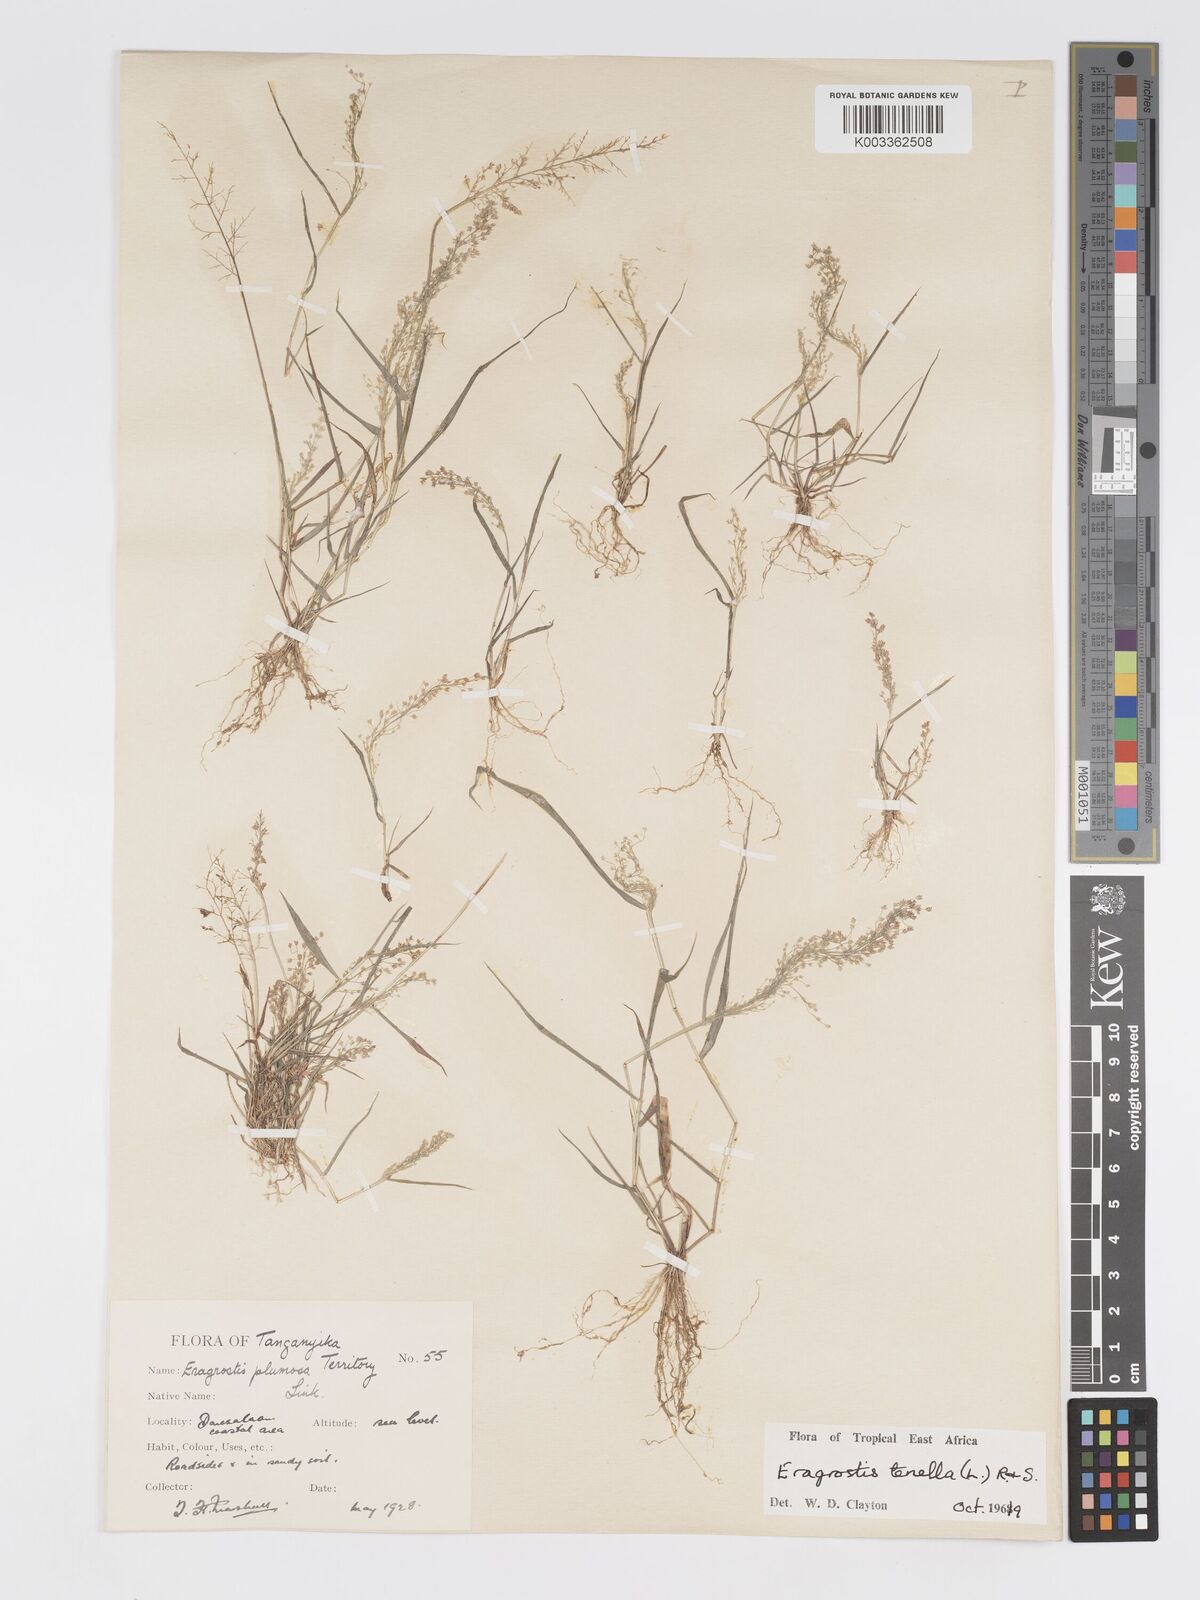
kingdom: Plantae
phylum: Tracheophyta
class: Liliopsida
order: Poales
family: Poaceae
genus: Eragrostis
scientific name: Eragrostis tenella
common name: Japanese lovegrass
